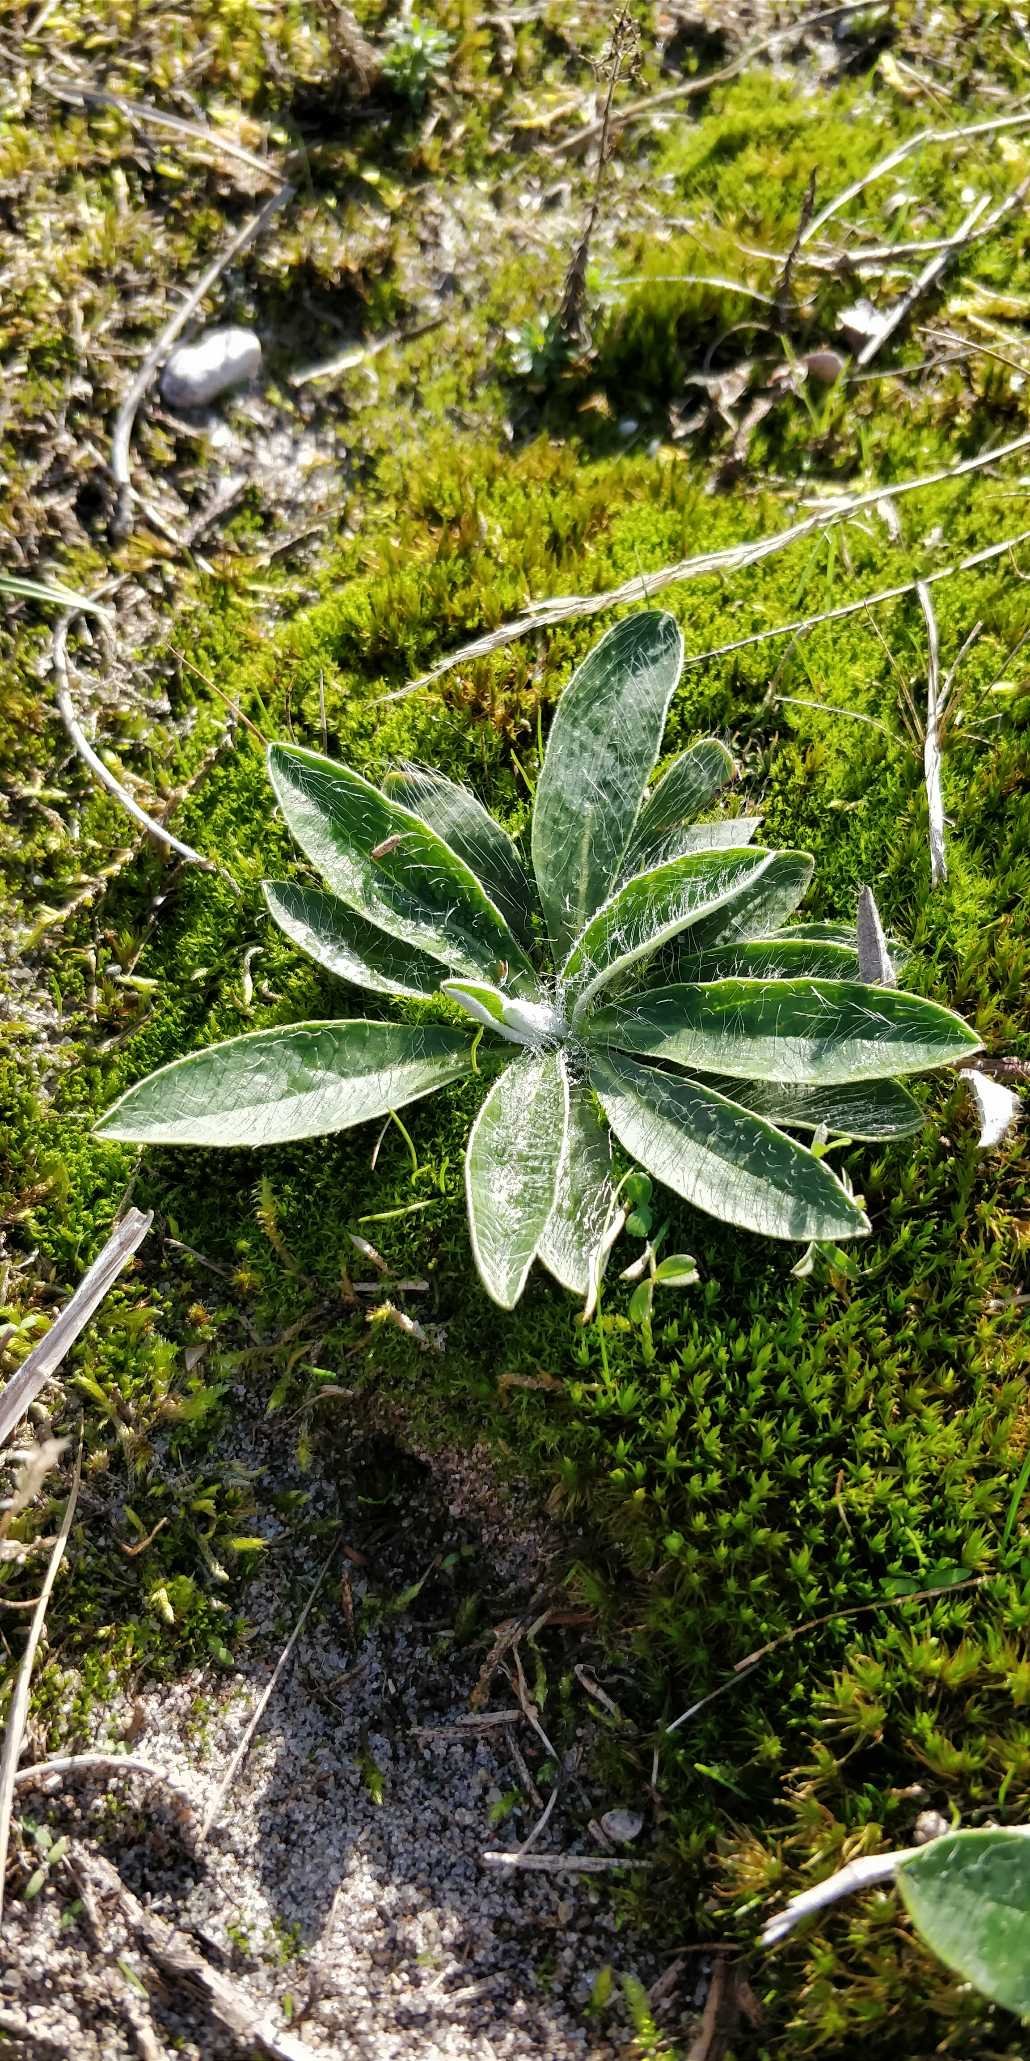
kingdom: Plantae
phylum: Tracheophyta
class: Magnoliopsida
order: Asterales
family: Asteraceae
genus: Pilosella
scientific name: Pilosella officinarum
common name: Håret høgeurt
